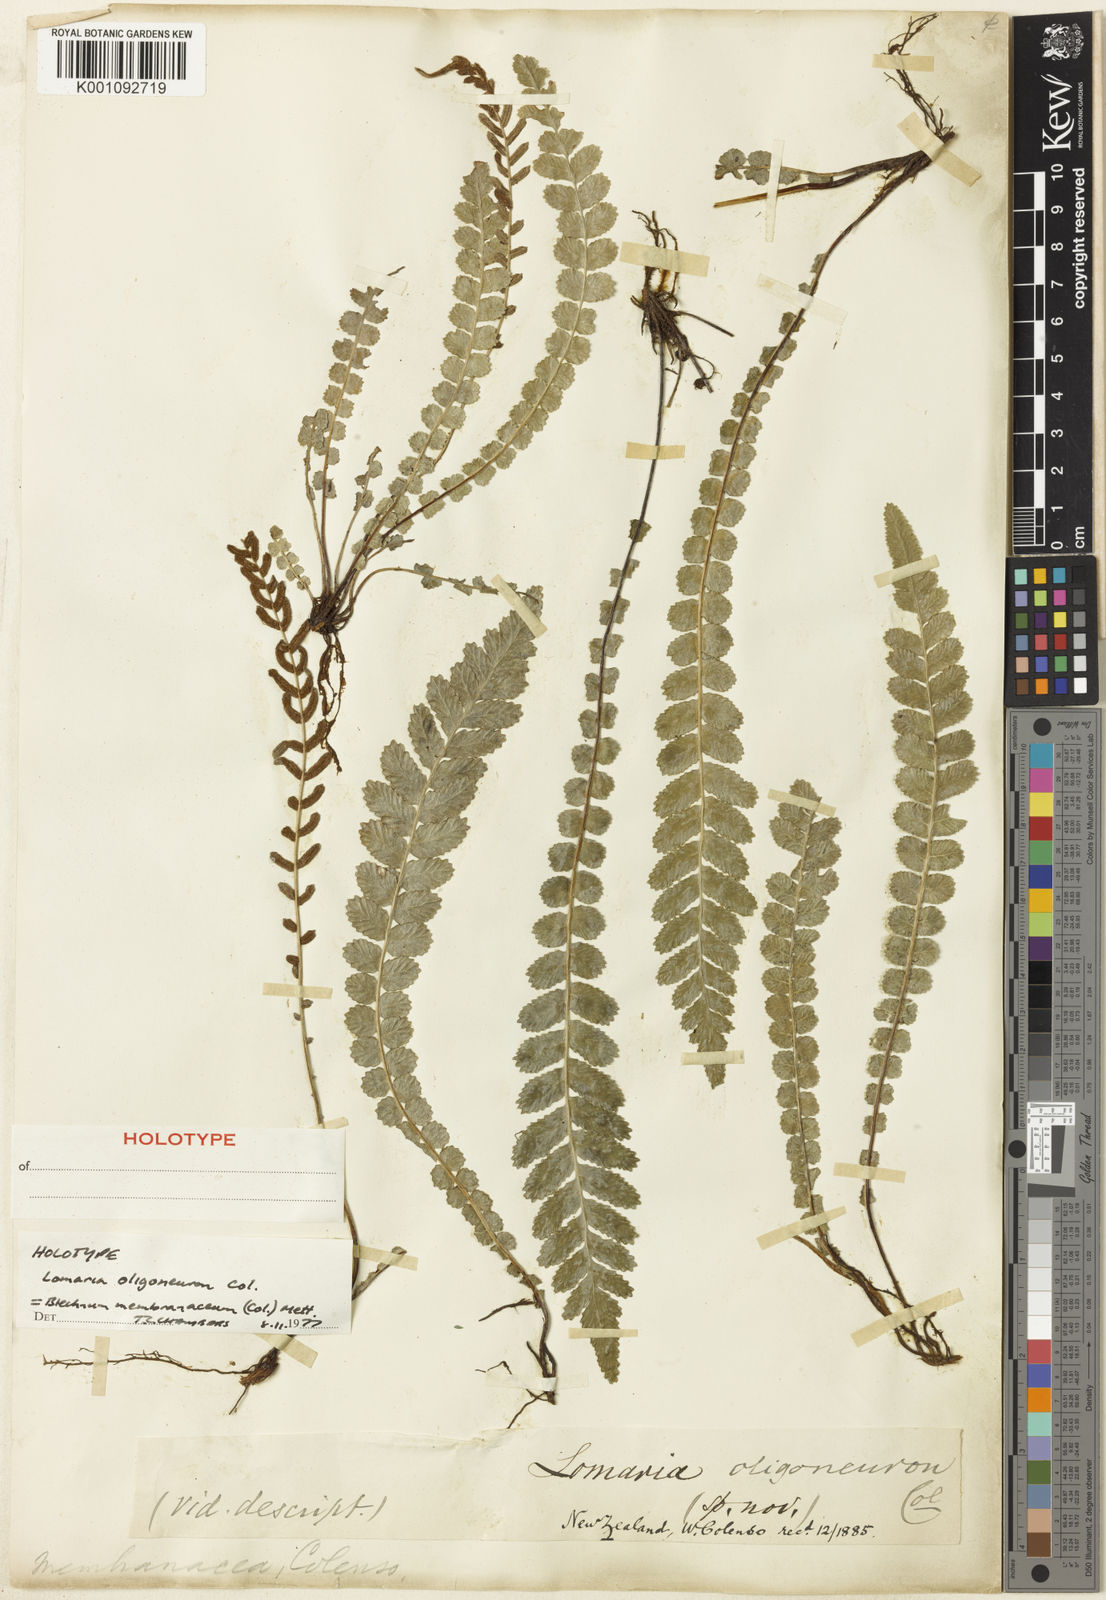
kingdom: Plantae
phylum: Tracheophyta
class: Polypodiopsida
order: Polypodiales
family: Blechnaceae
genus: Austroblechnum
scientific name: Austroblechnum membranaceum
